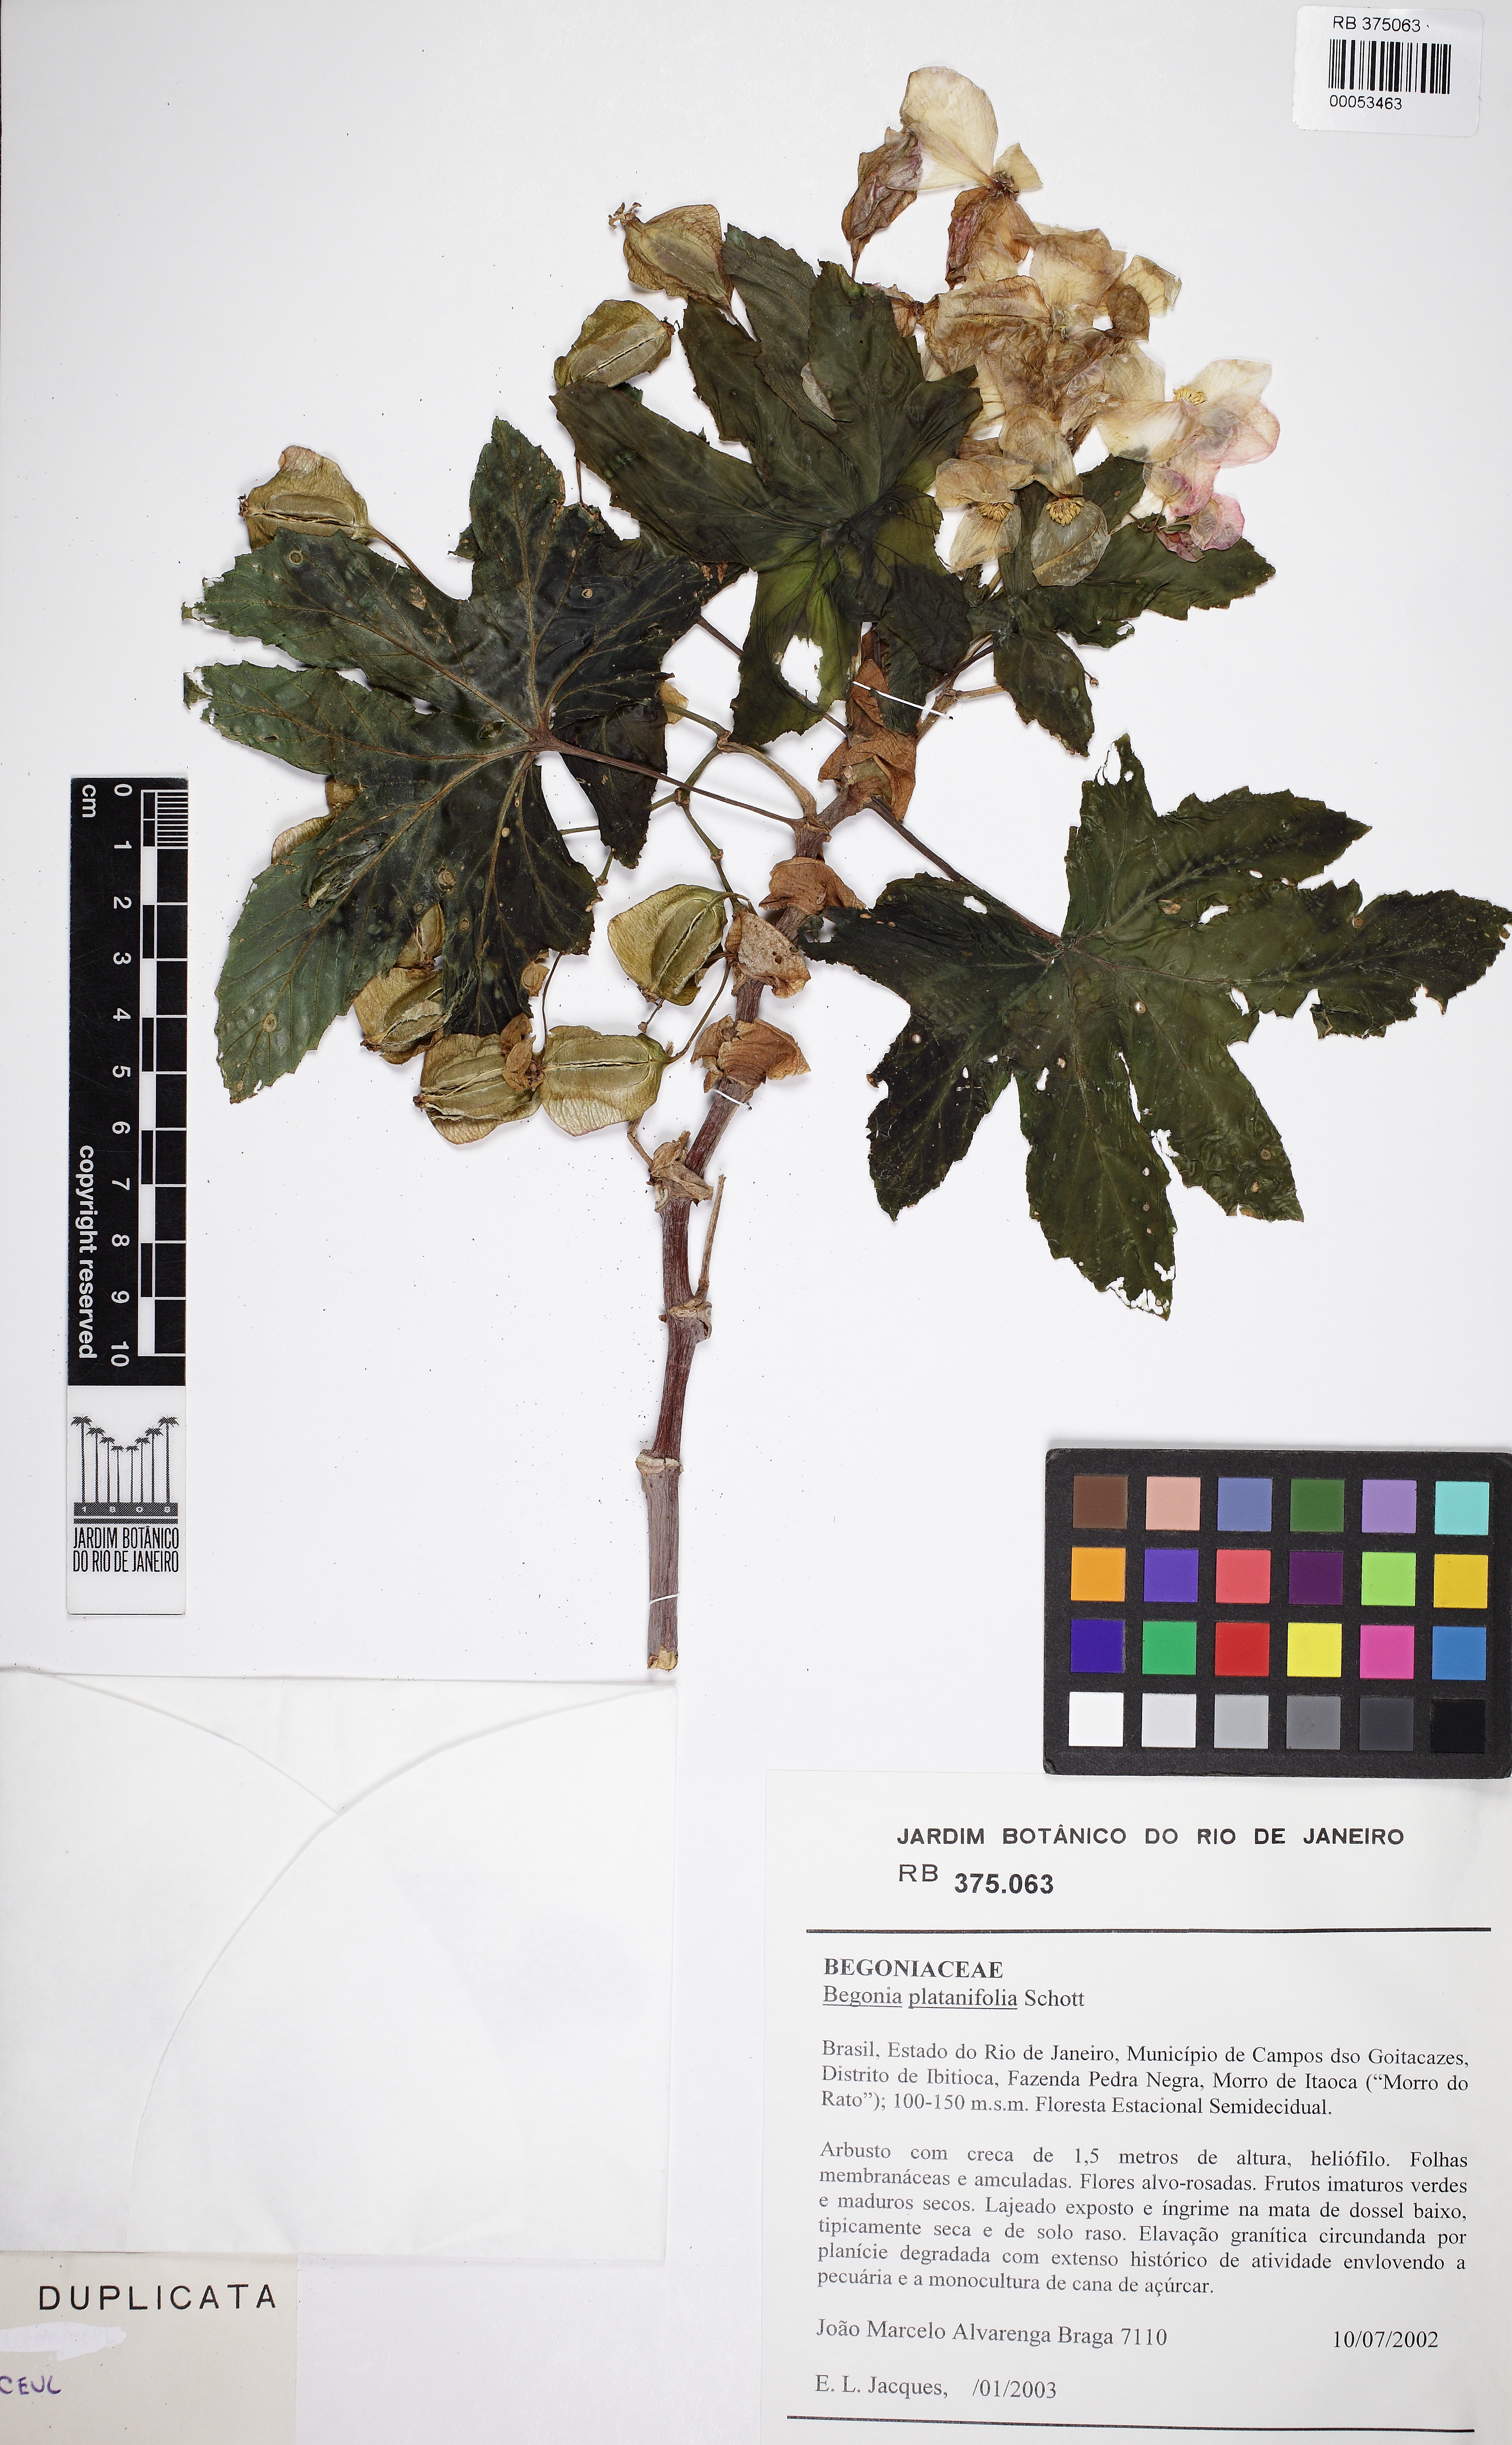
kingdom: Plantae
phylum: Tracheophyta
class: Magnoliopsida
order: Cucurbitales
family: Begoniaceae
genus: Begonia
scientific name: Begonia plantanifolia
